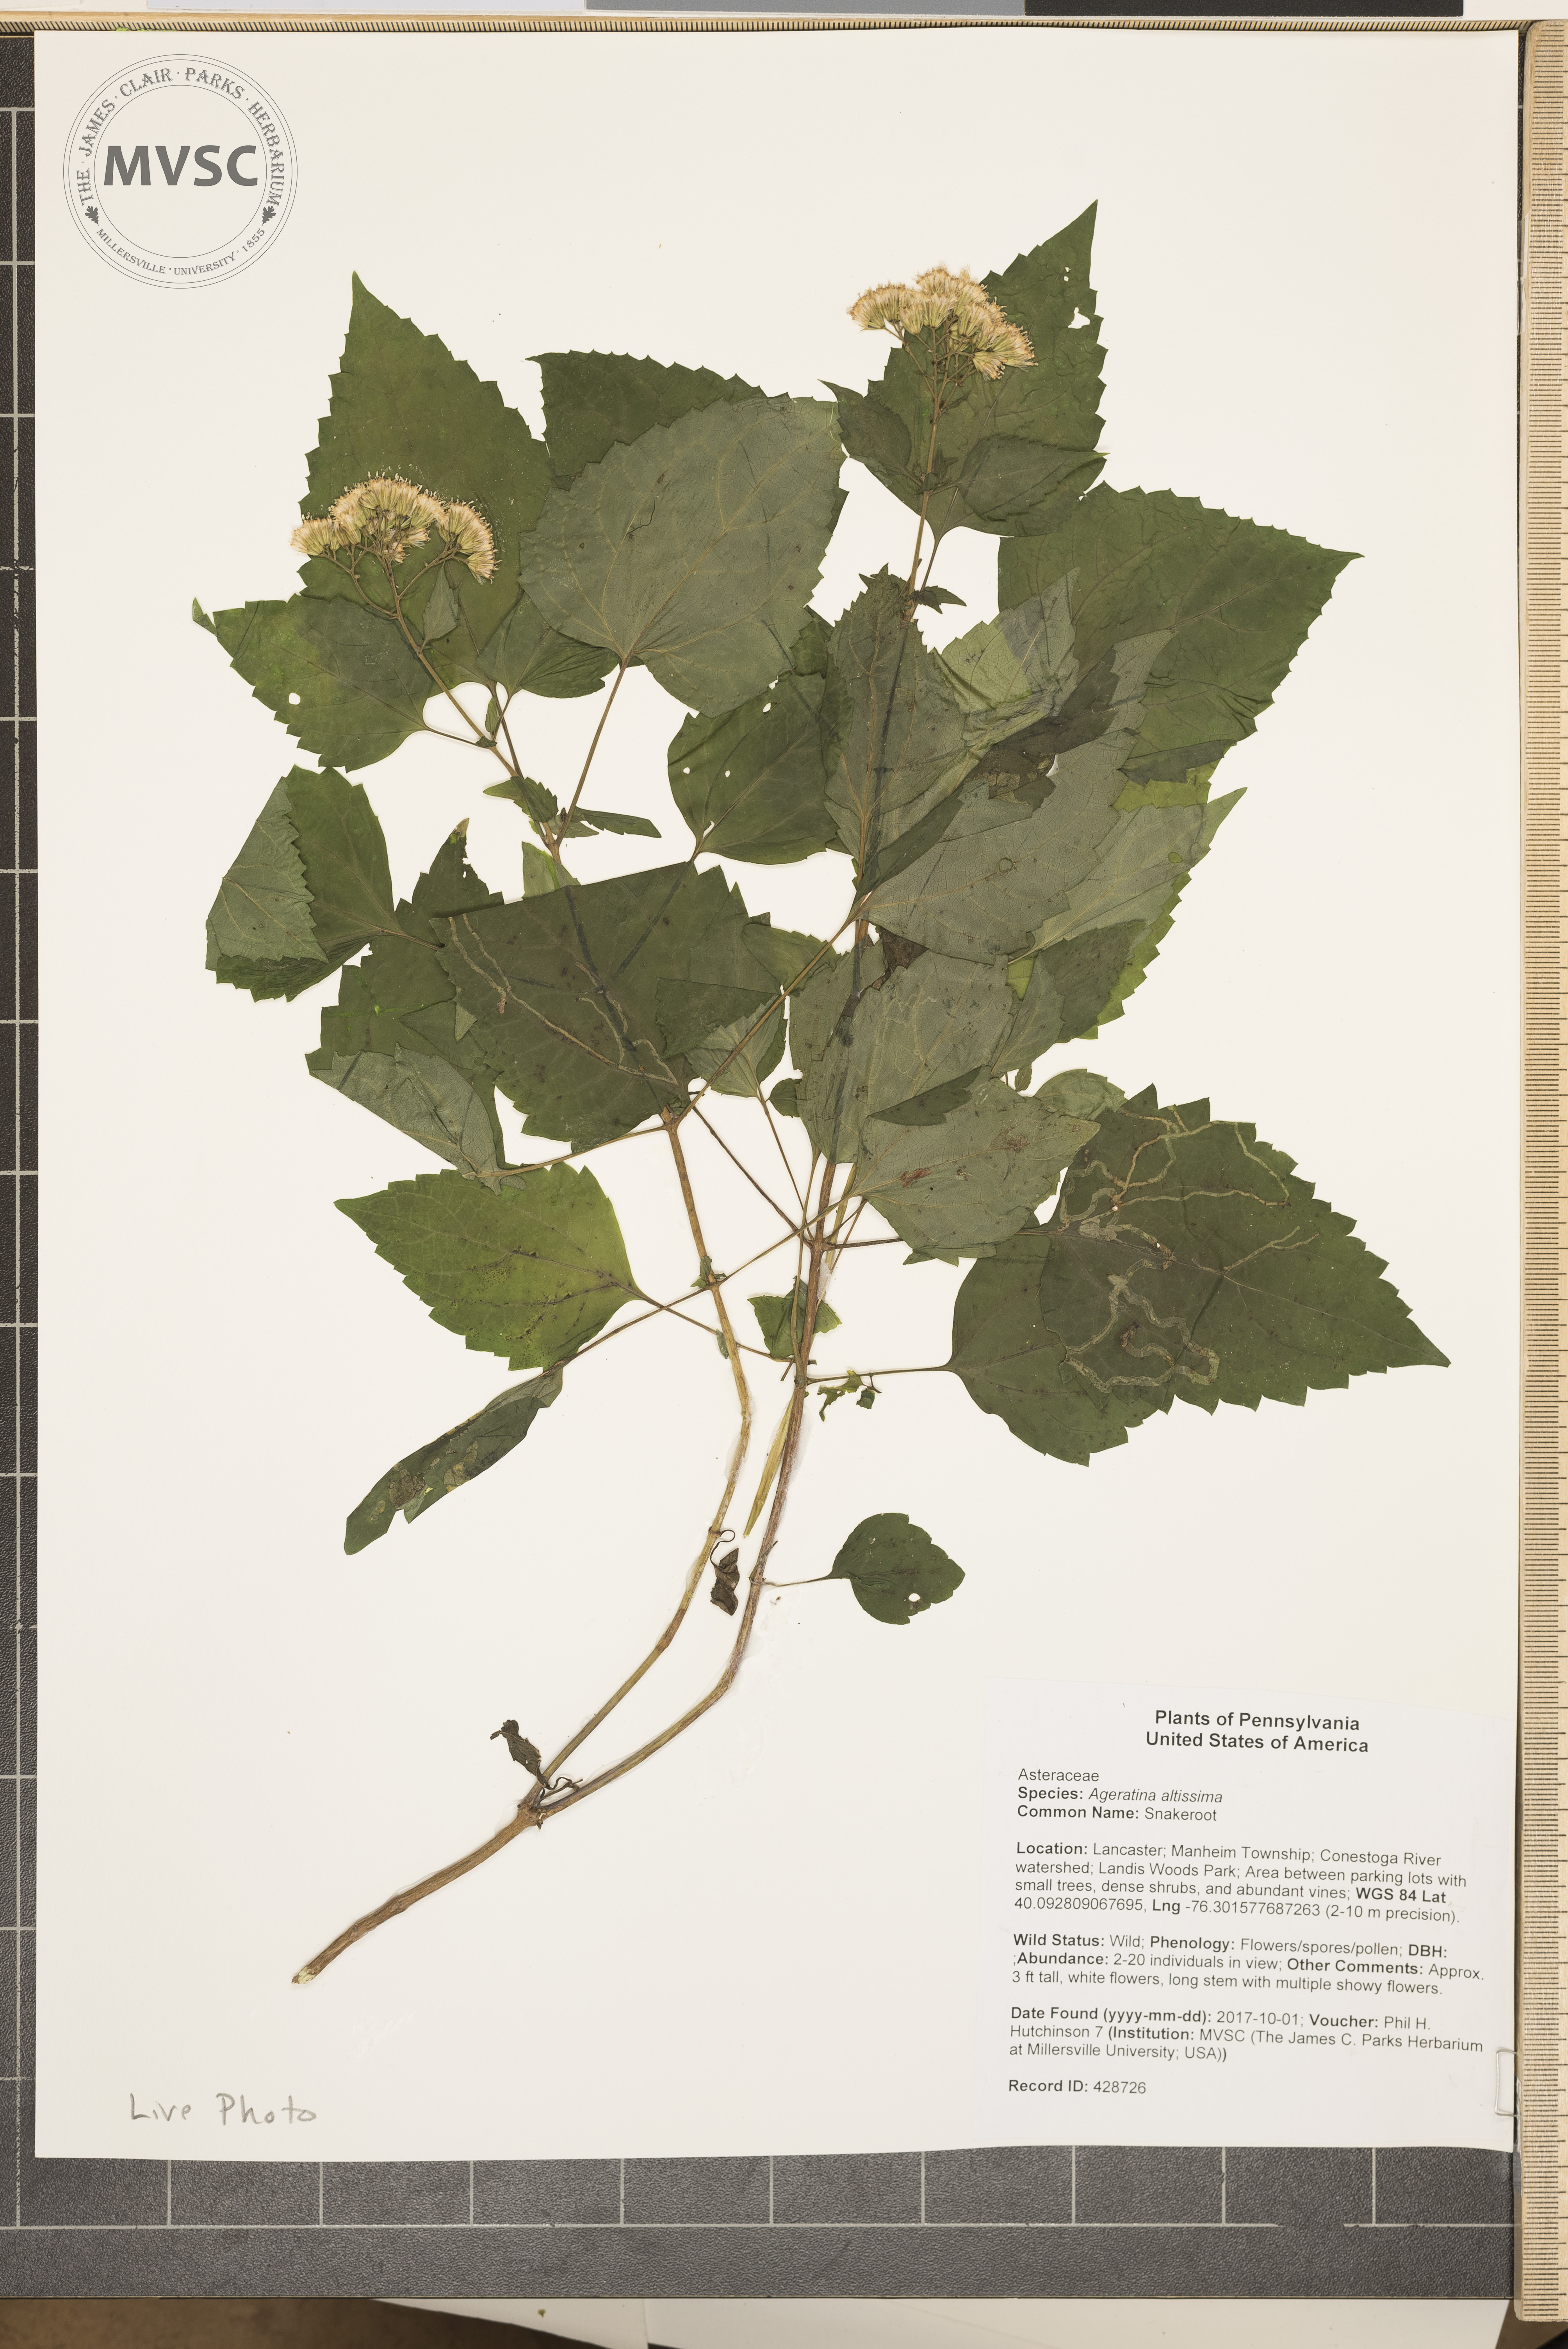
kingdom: Plantae
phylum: Tracheophyta
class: Magnoliopsida
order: Asterales
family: Asteraceae
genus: Ageratina
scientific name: Ageratina altissima
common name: Snakeroot
